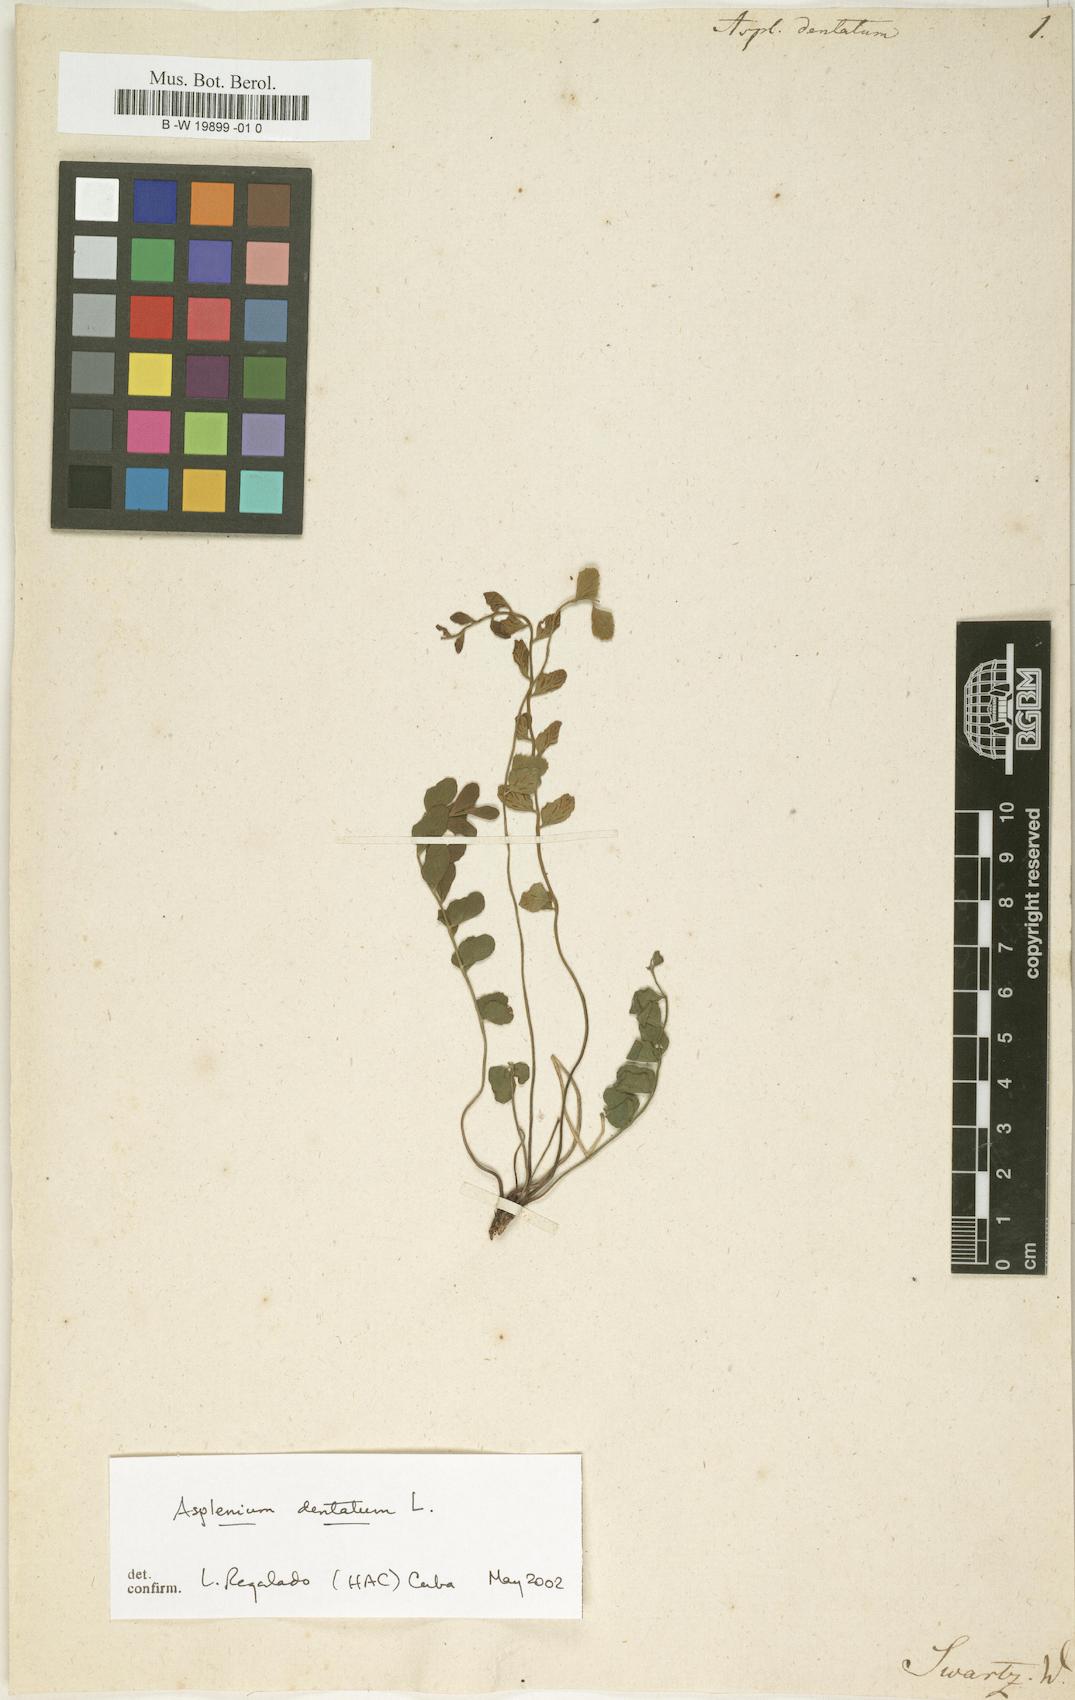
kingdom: Plantae
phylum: Tracheophyta
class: Polypodiopsida
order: Polypodiales
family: Aspleniaceae
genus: Asplenium
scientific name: Asplenium dentatum
